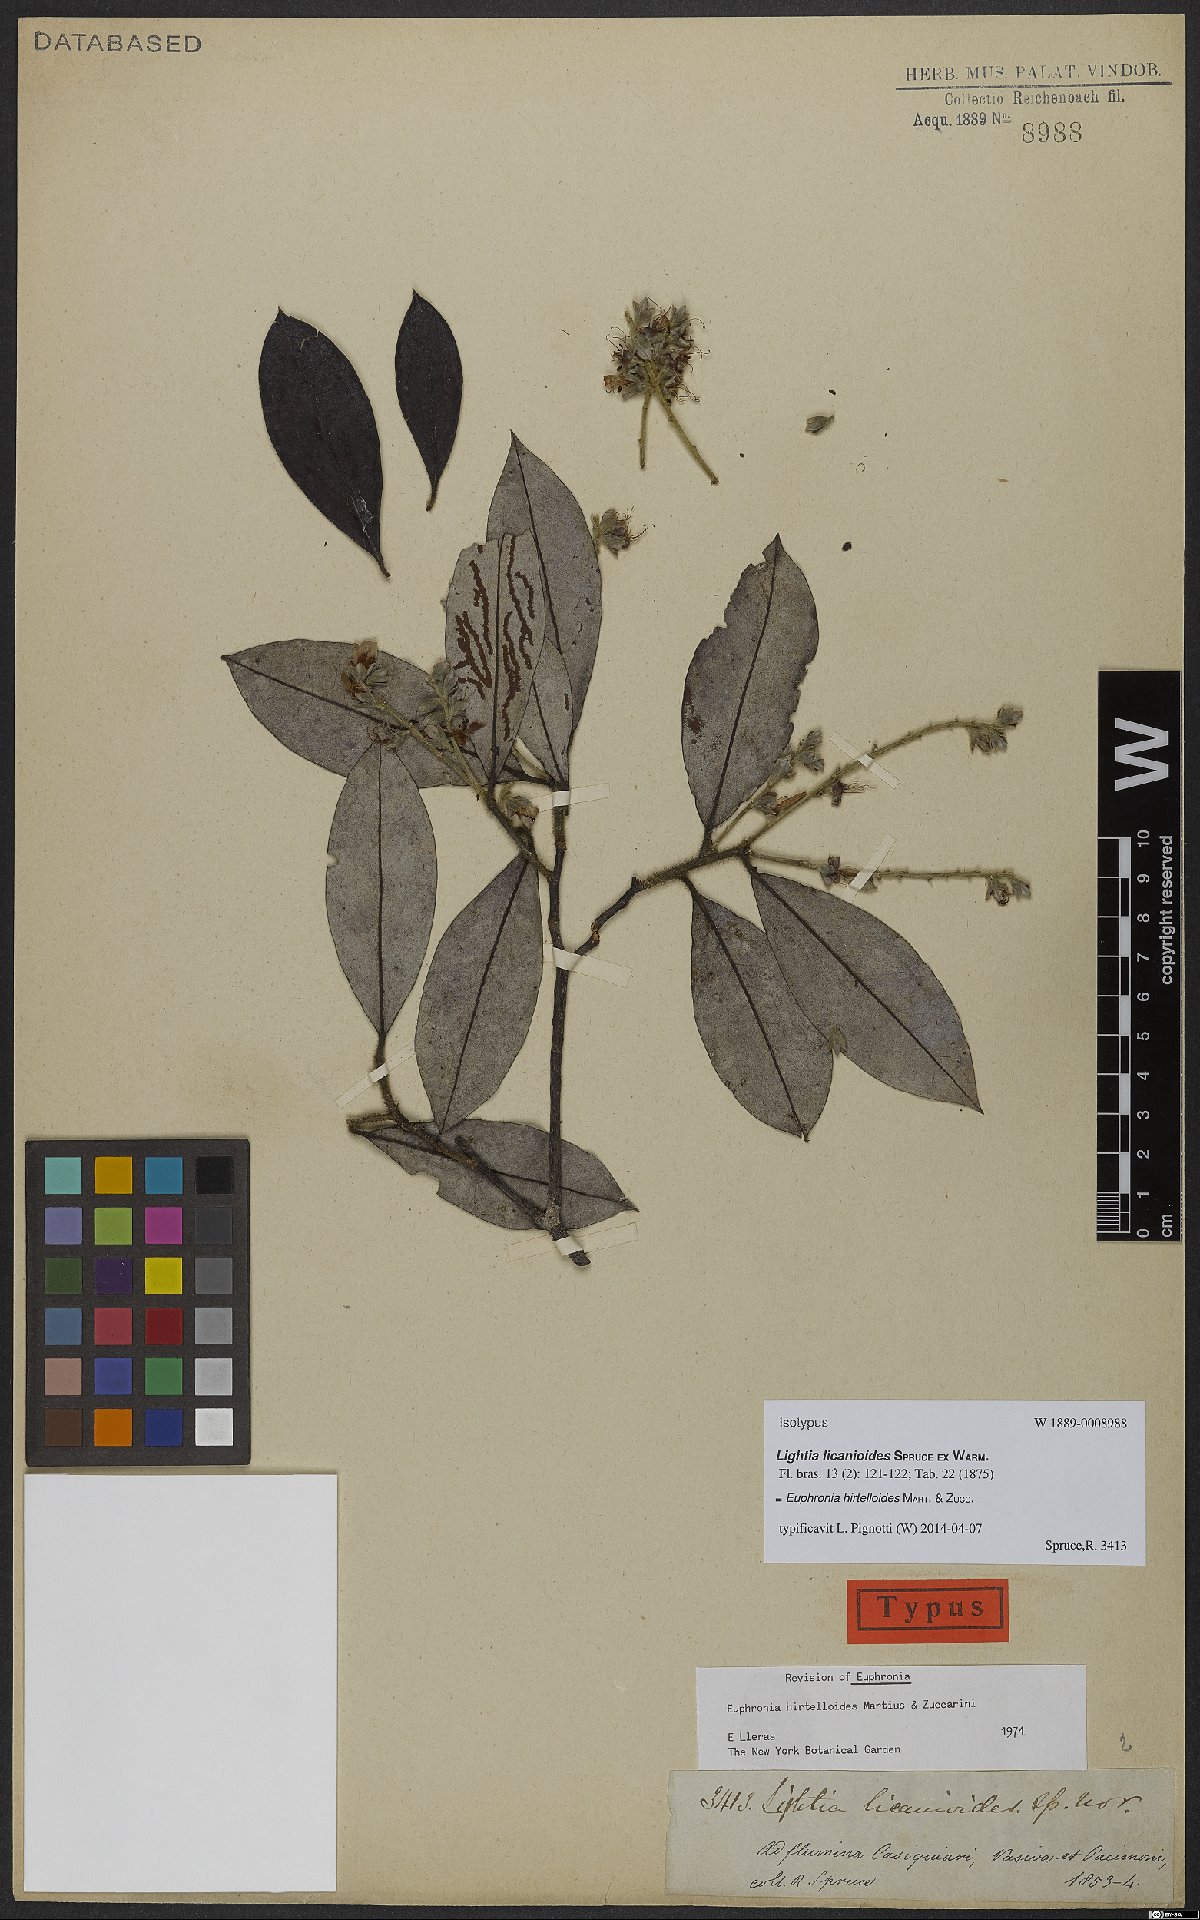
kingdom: Plantae
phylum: Tracheophyta
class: Magnoliopsida
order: Malpighiales
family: Euphroniaceae
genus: Euphronia
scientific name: Euphronia hirtelloides
